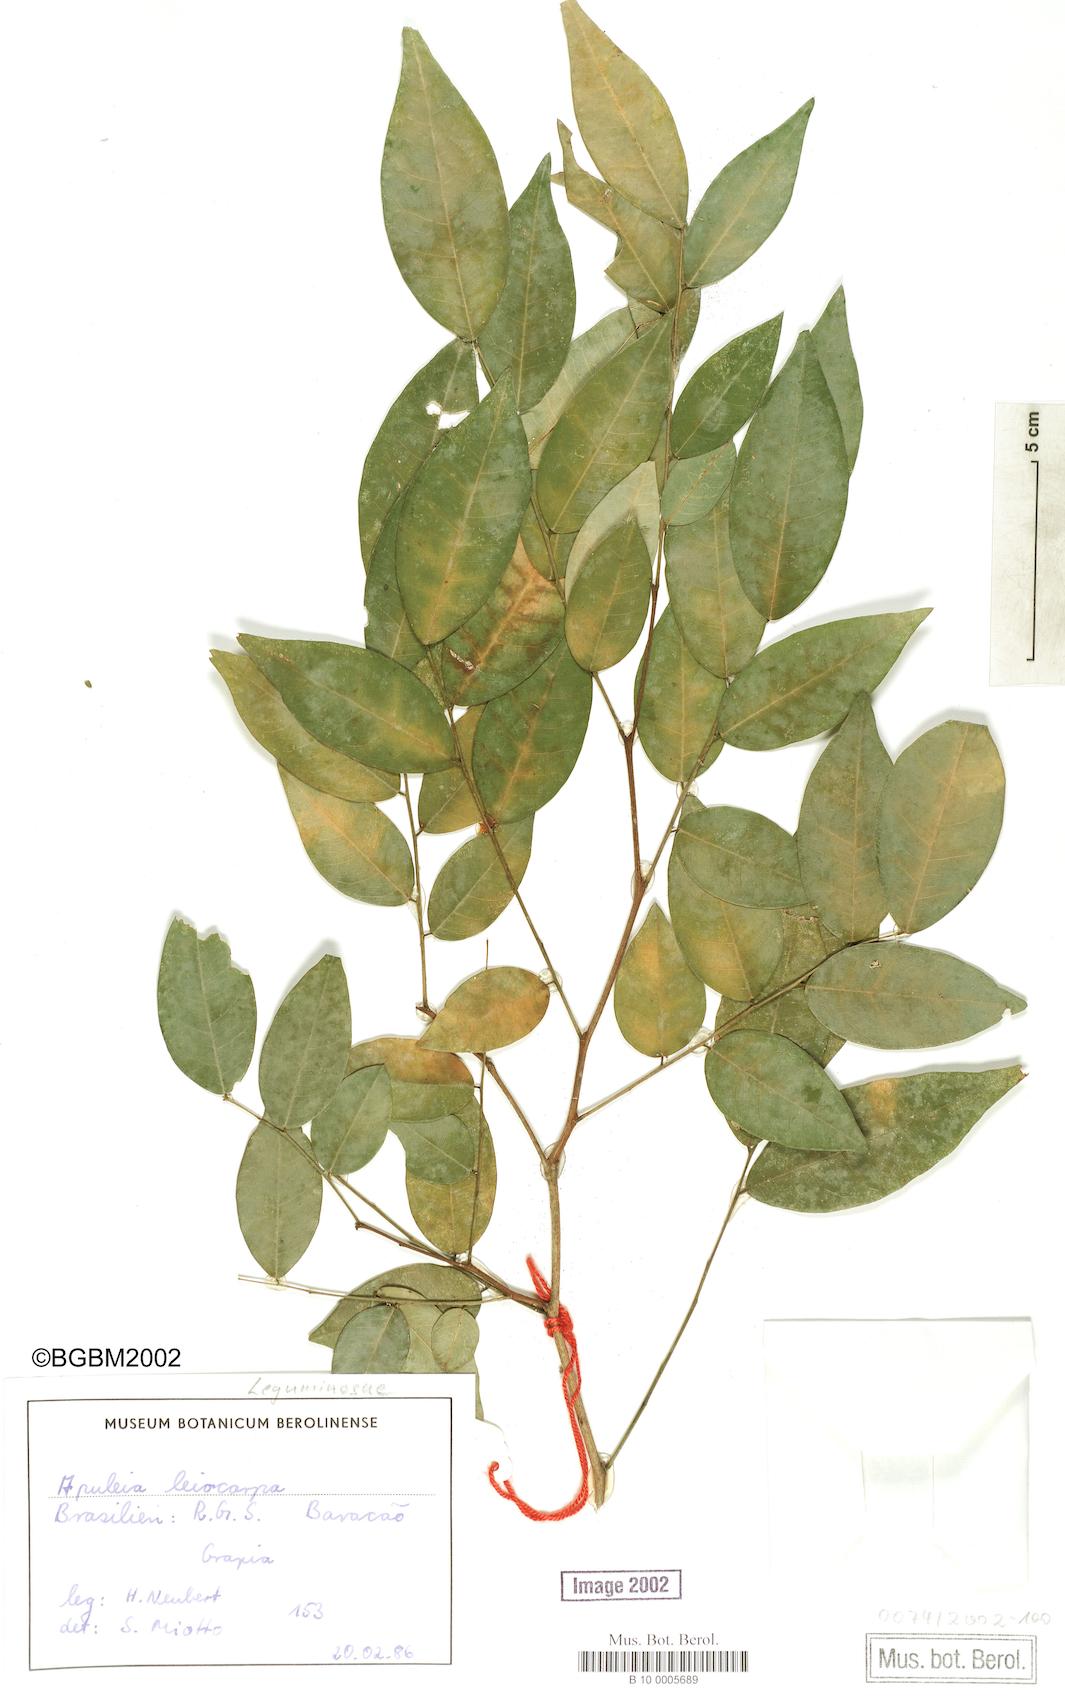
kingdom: Plantae
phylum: Tracheophyta
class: Magnoliopsida
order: Fabales
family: Fabaceae
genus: Apuleia
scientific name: Apuleia leiocarpa
